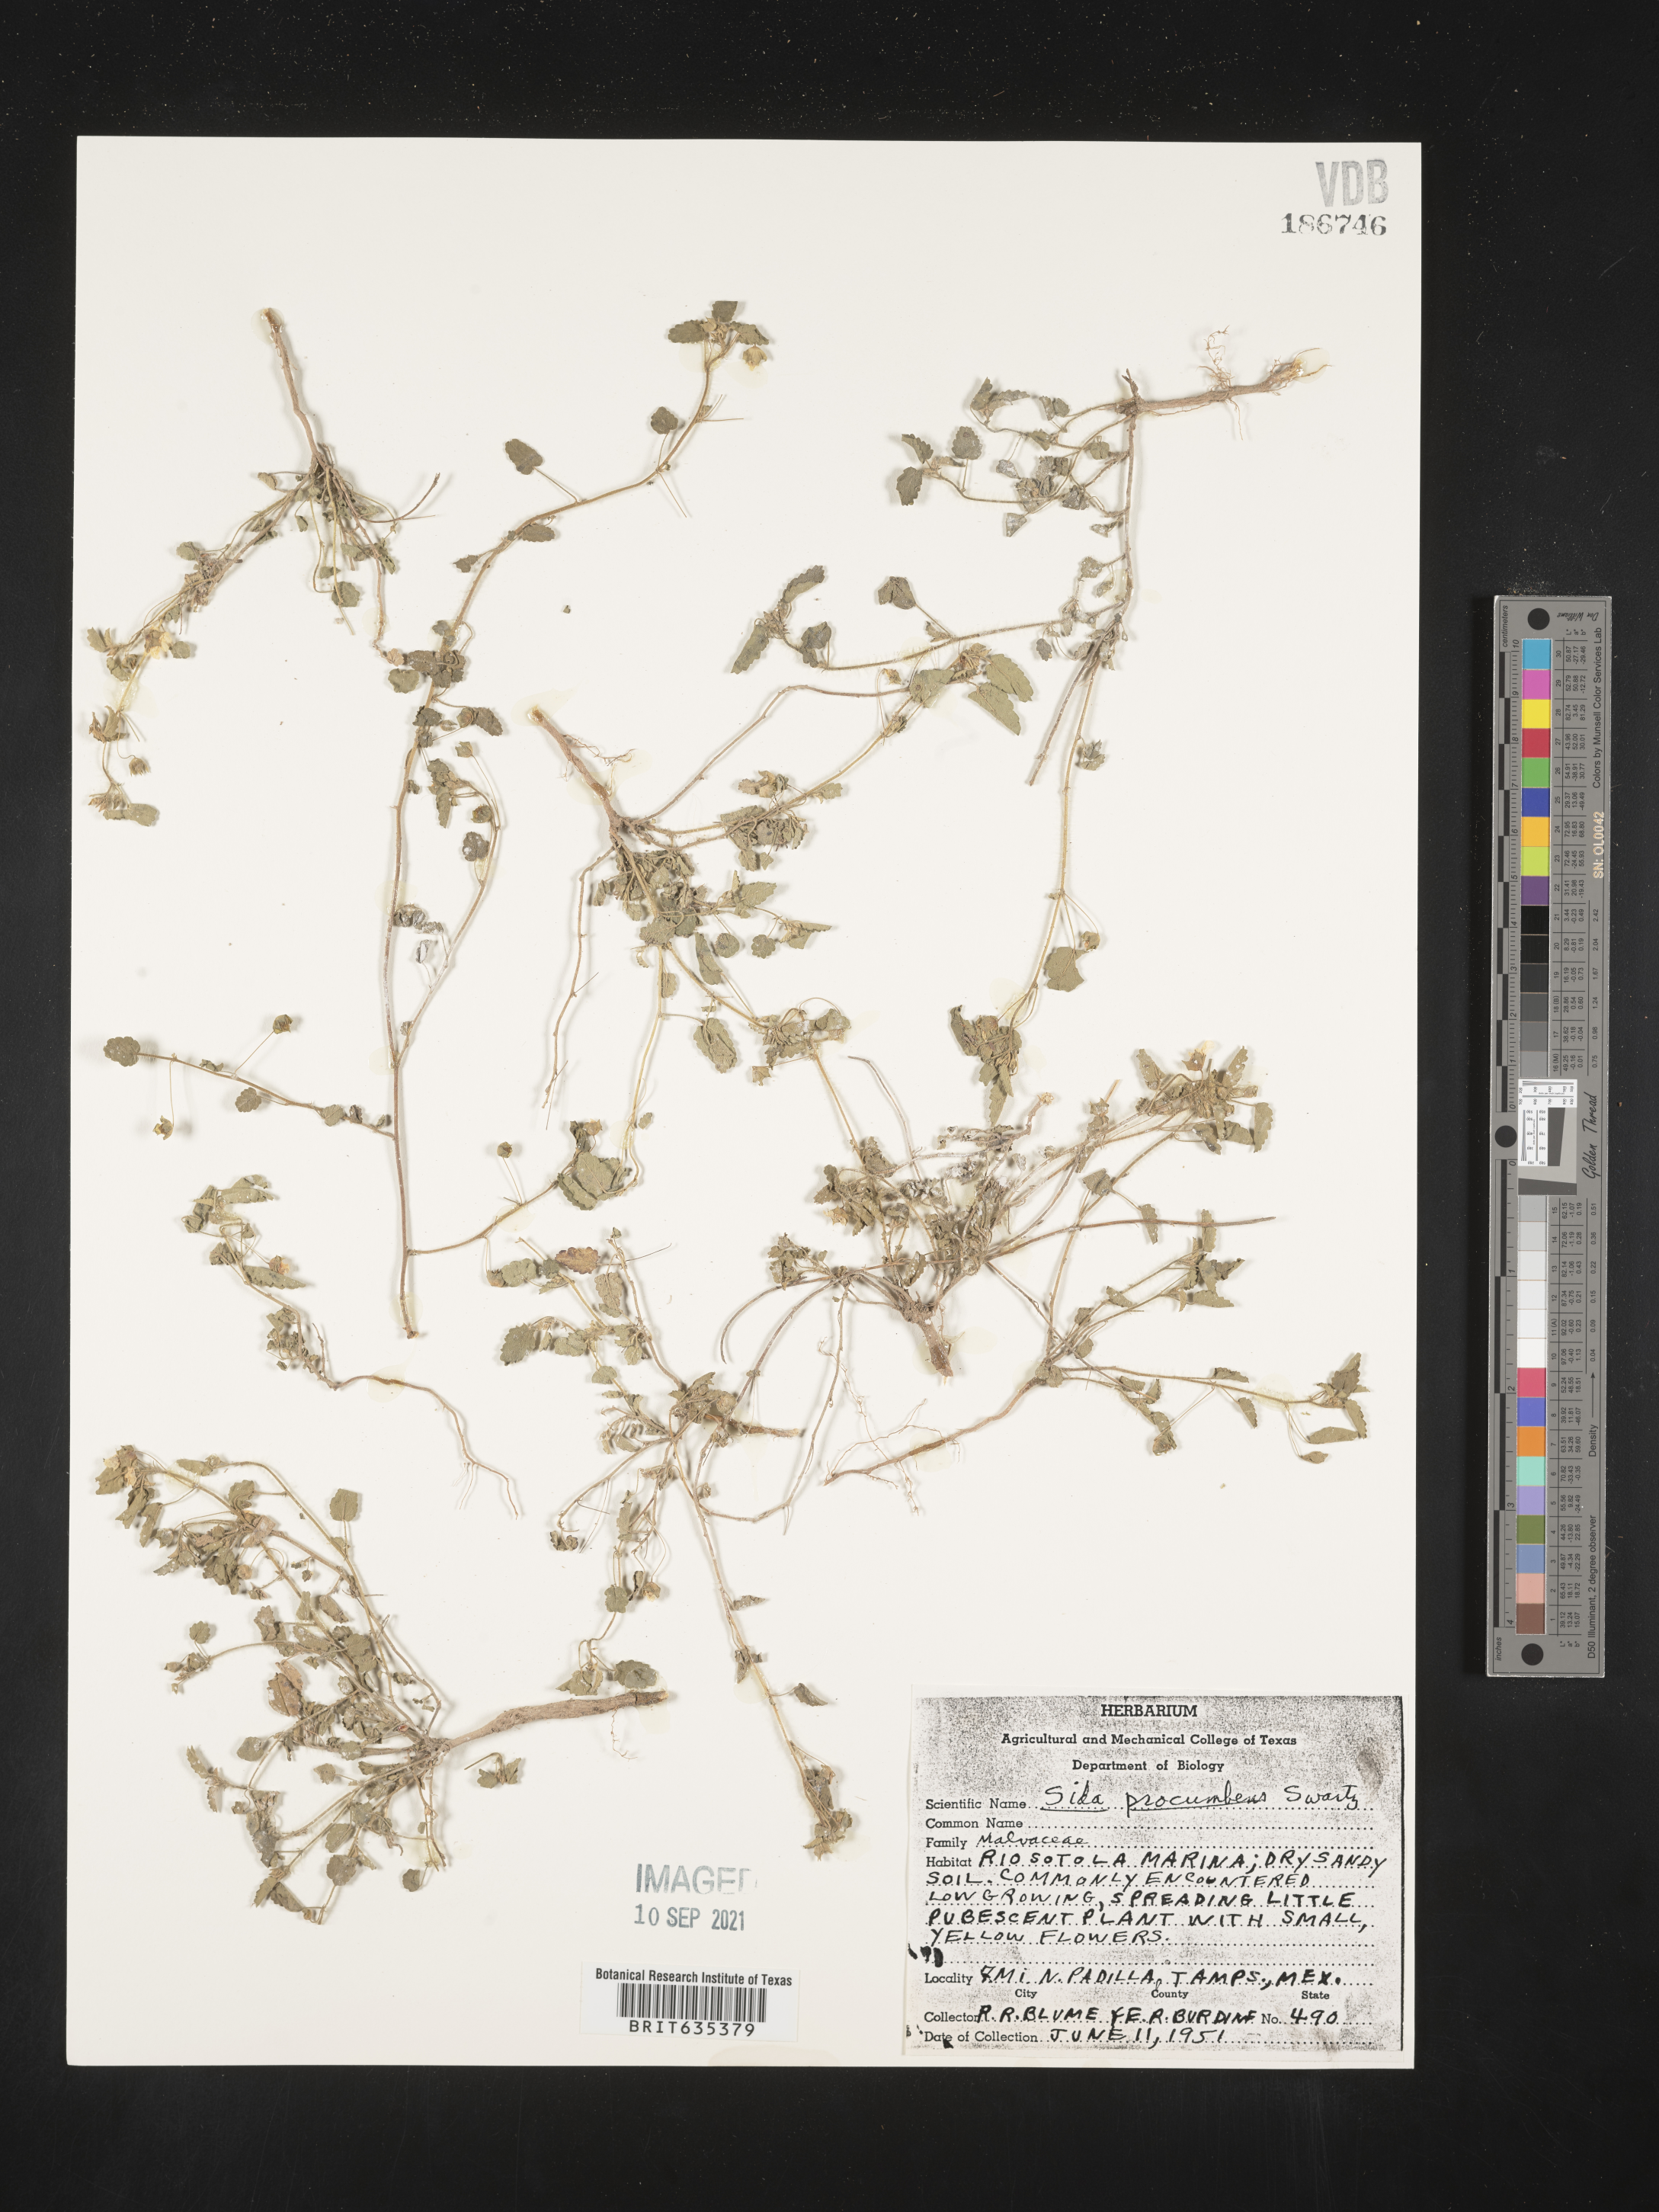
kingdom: Plantae
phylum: Tracheophyta
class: Magnoliopsida
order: Malvales
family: Malvaceae
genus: Sida
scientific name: Sida
